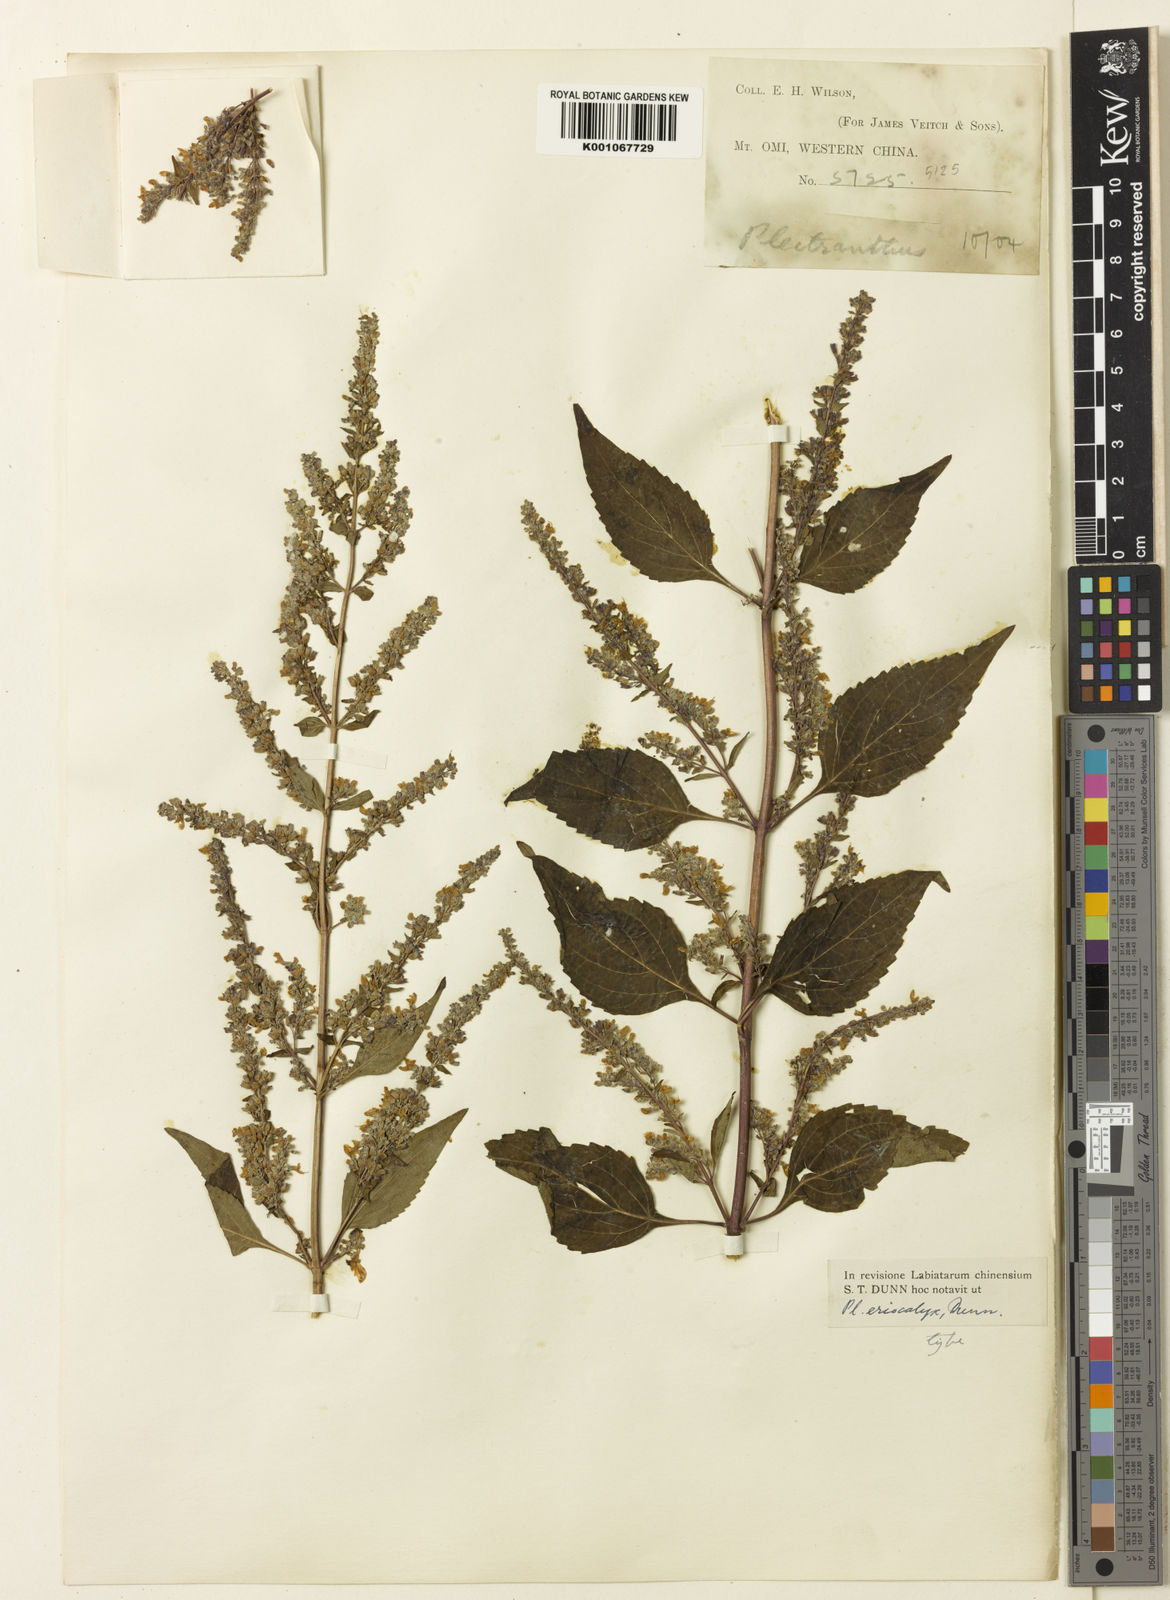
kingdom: Plantae
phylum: Tracheophyta
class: Magnoliopsida
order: Lamiales
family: Lamiaceae
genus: Isodon
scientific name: Isodon
